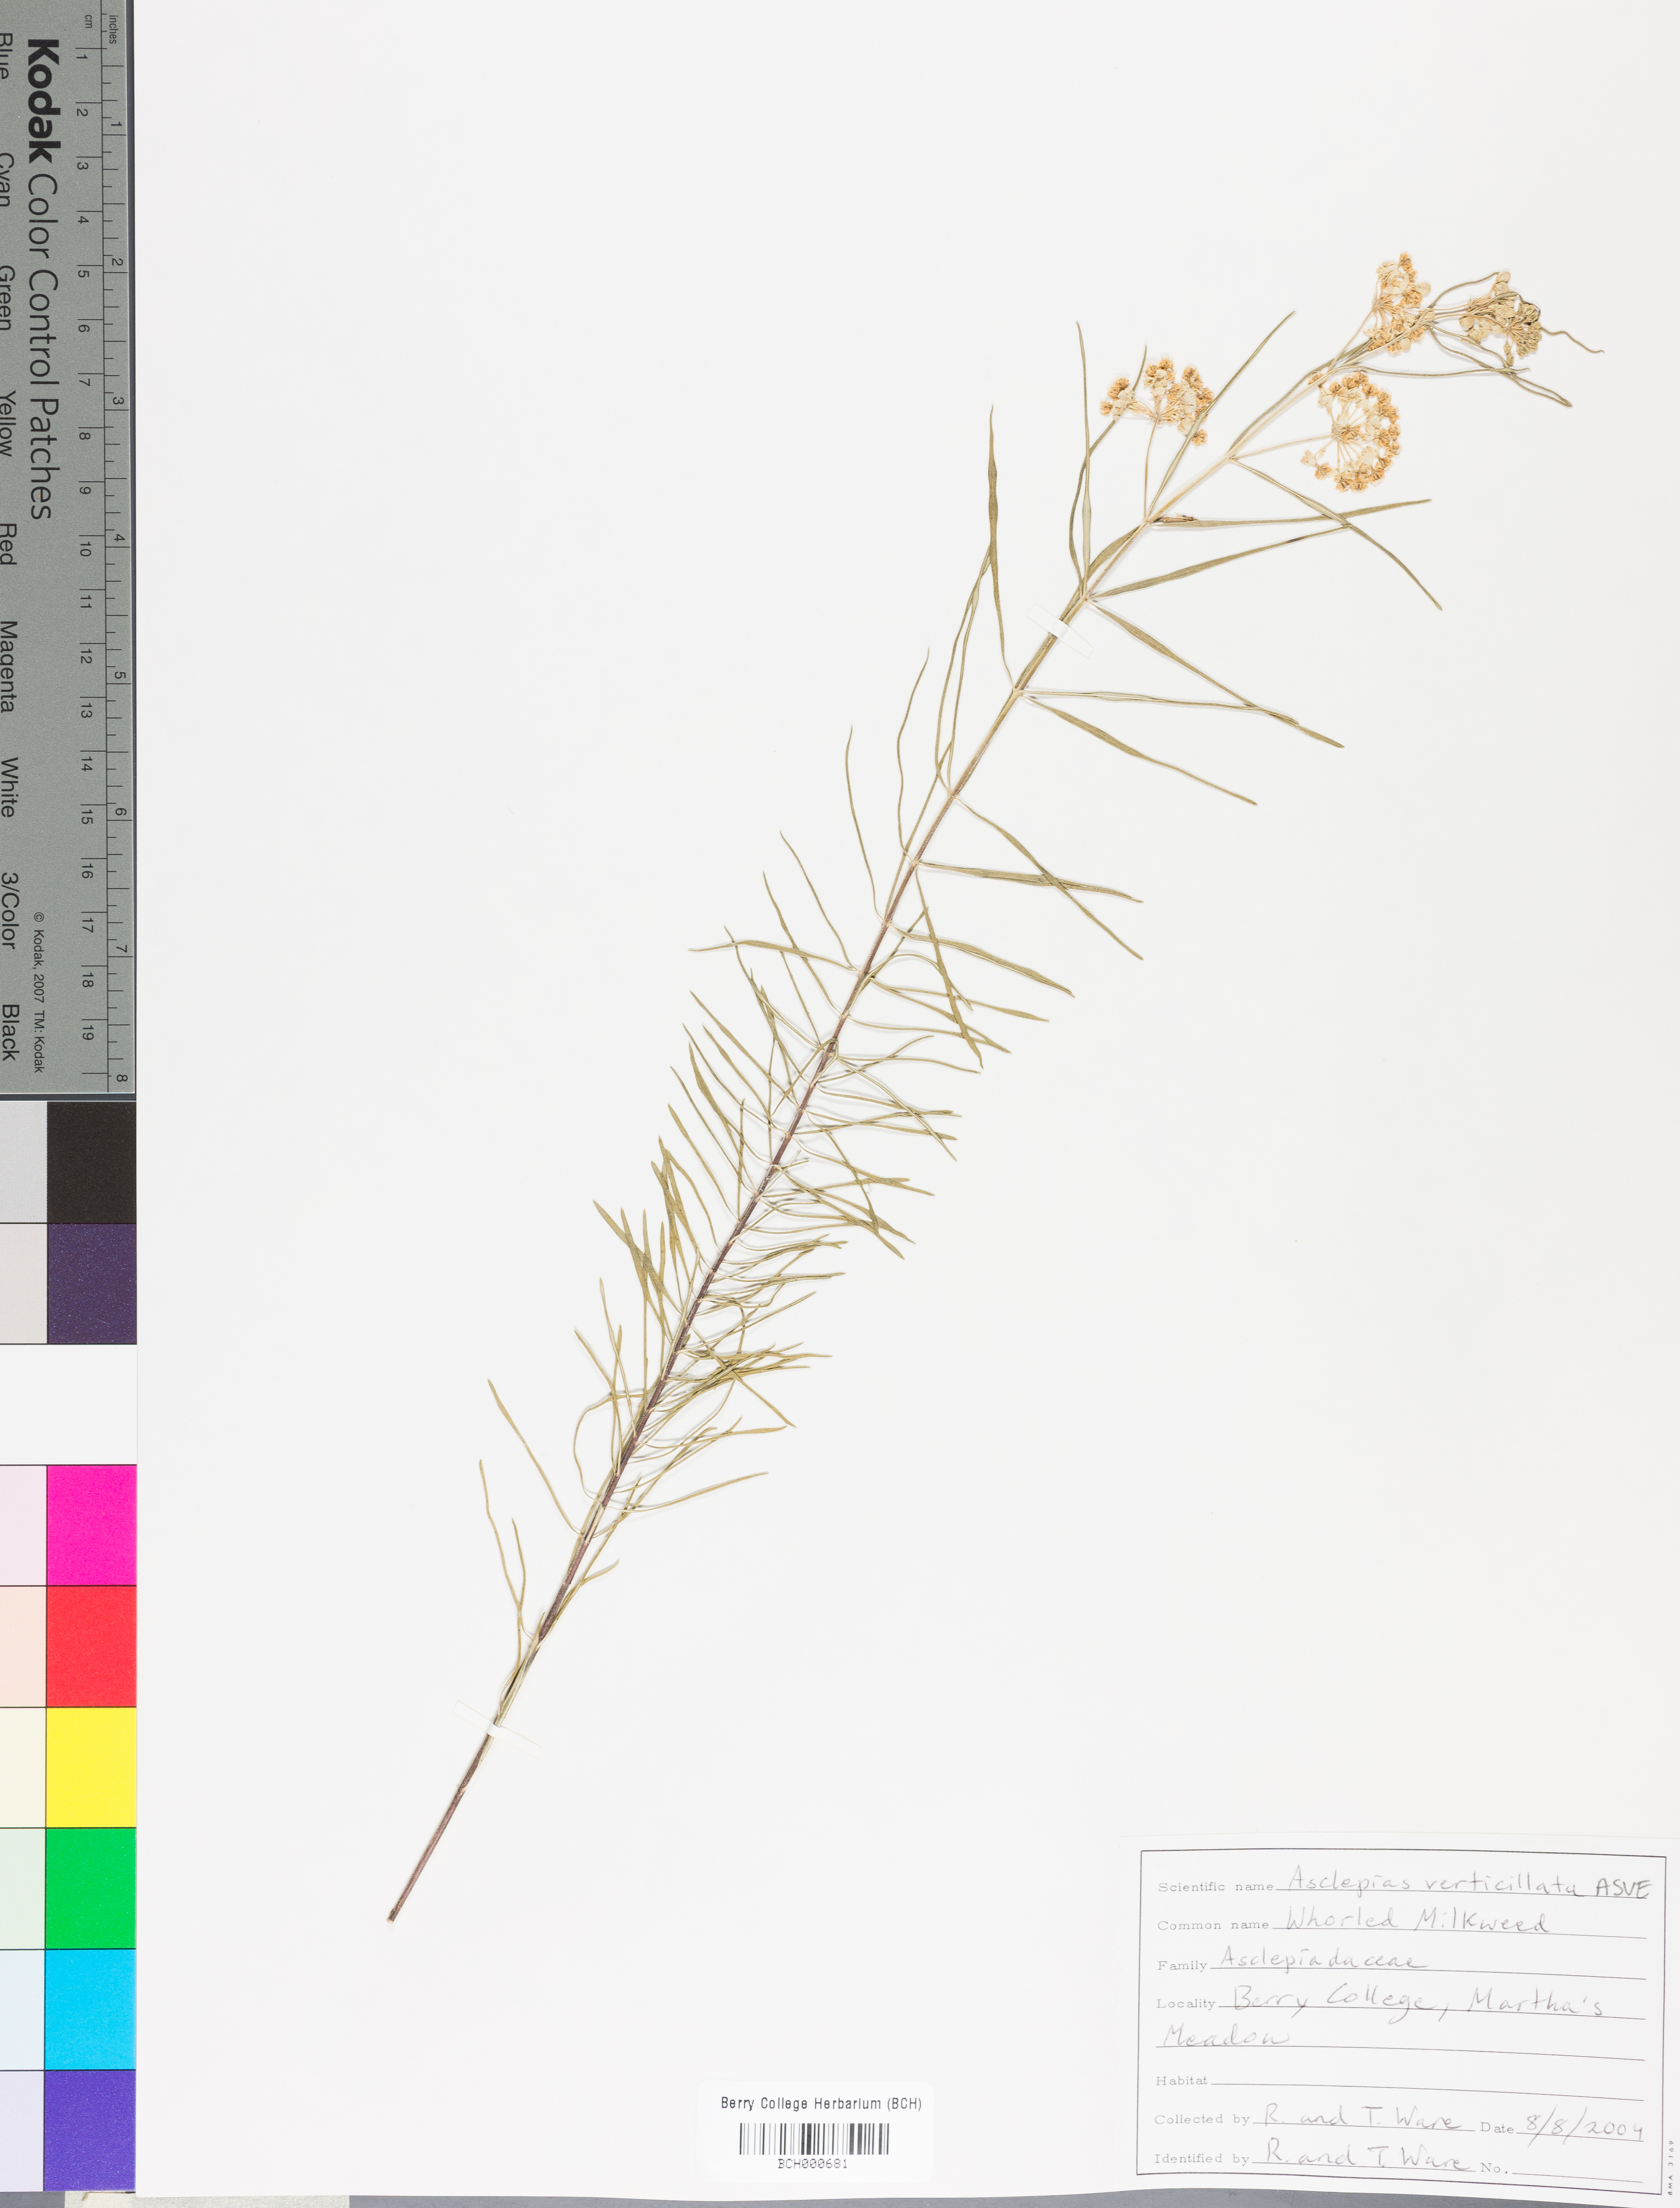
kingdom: Plantae
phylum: Tracheophyta
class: Magnoliopsida
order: Gentianales
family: Apocynaceae
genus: Asclepias
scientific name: Asclepias verticillata
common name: Eastern whorled milkweed
